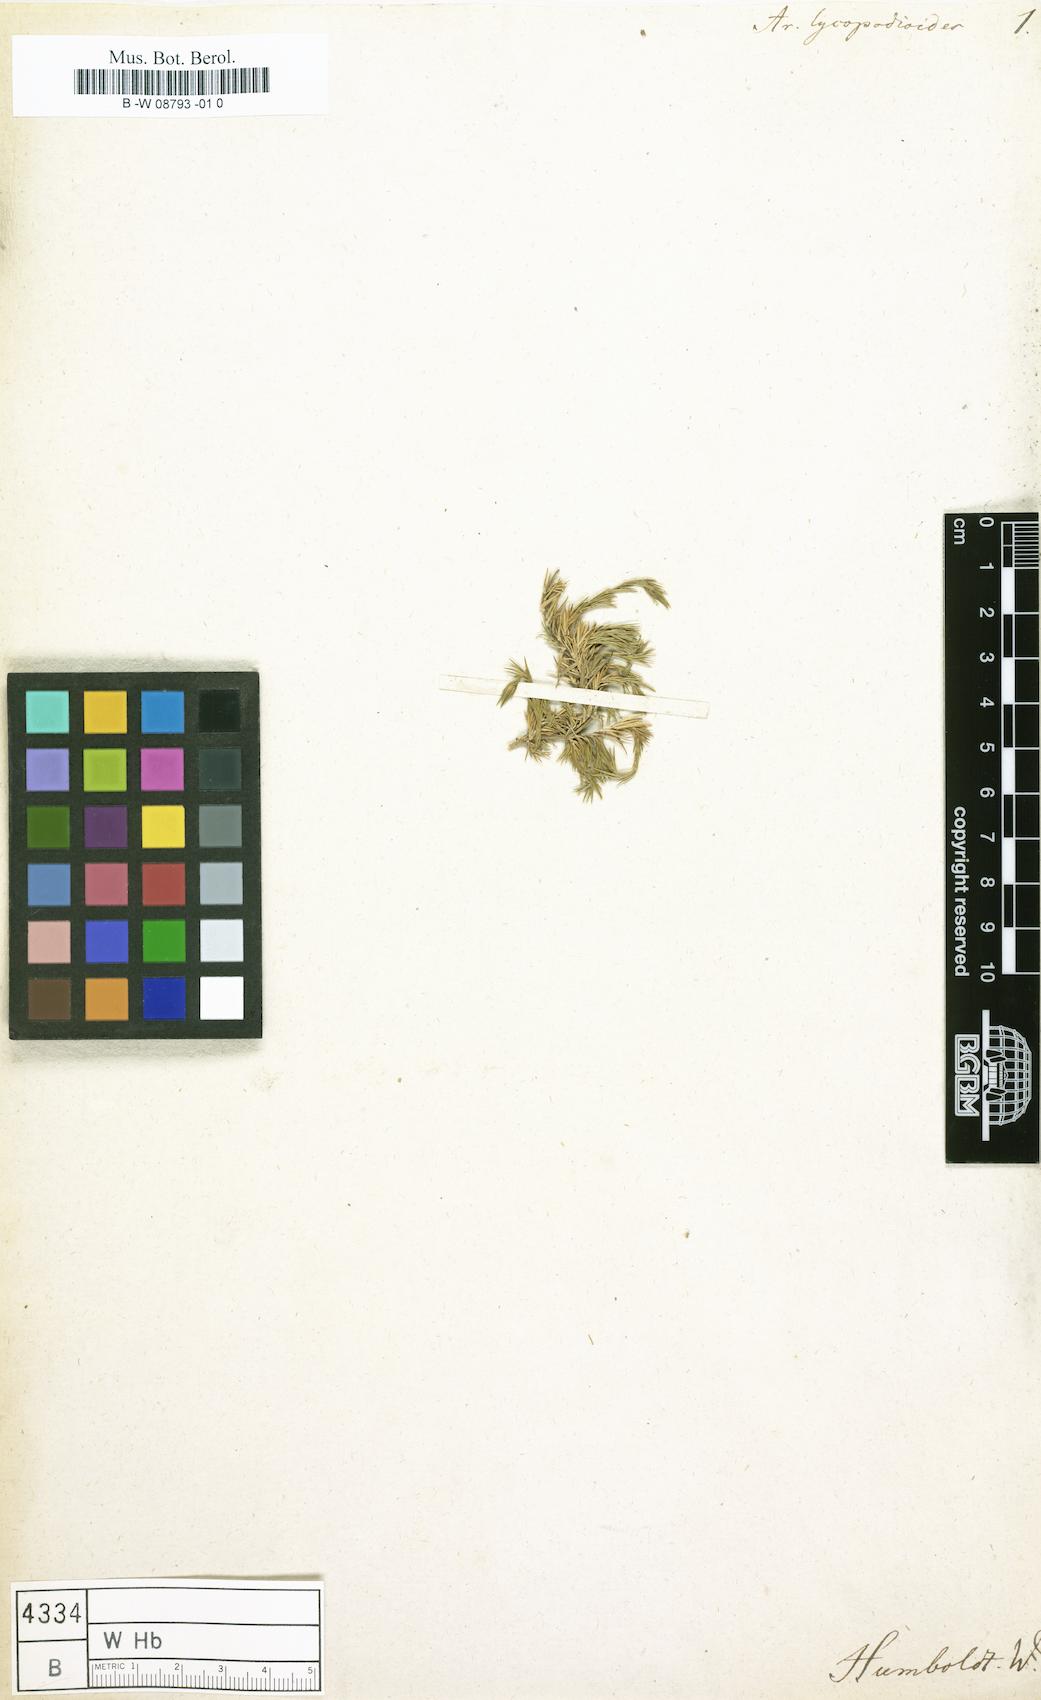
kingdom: Plantae
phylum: Tracheophyta
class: Magnoliopsida
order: Caryophyllales
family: Caryophyllaceae
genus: Arenaria
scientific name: Arenaria lycopodioides
